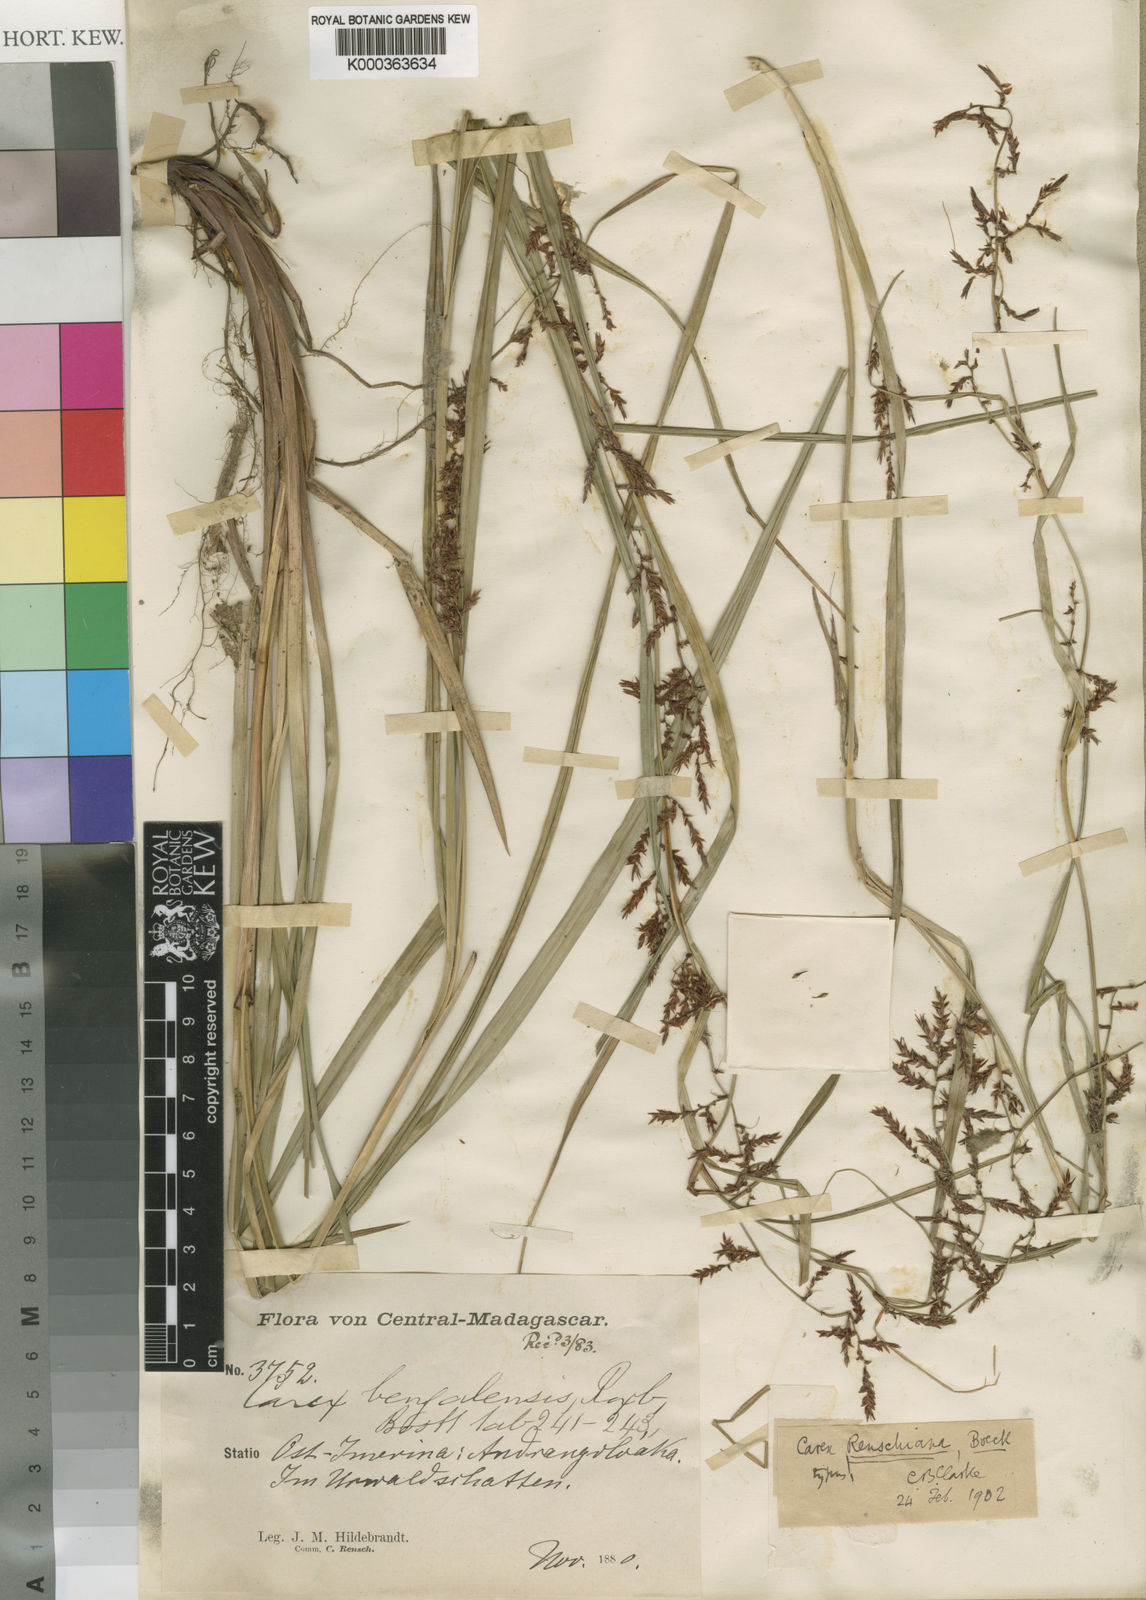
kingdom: Plantae
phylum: Tracheophyta
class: Liliopsida
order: Poales
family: Cyperaceae
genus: Carex
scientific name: Carex renschiana
